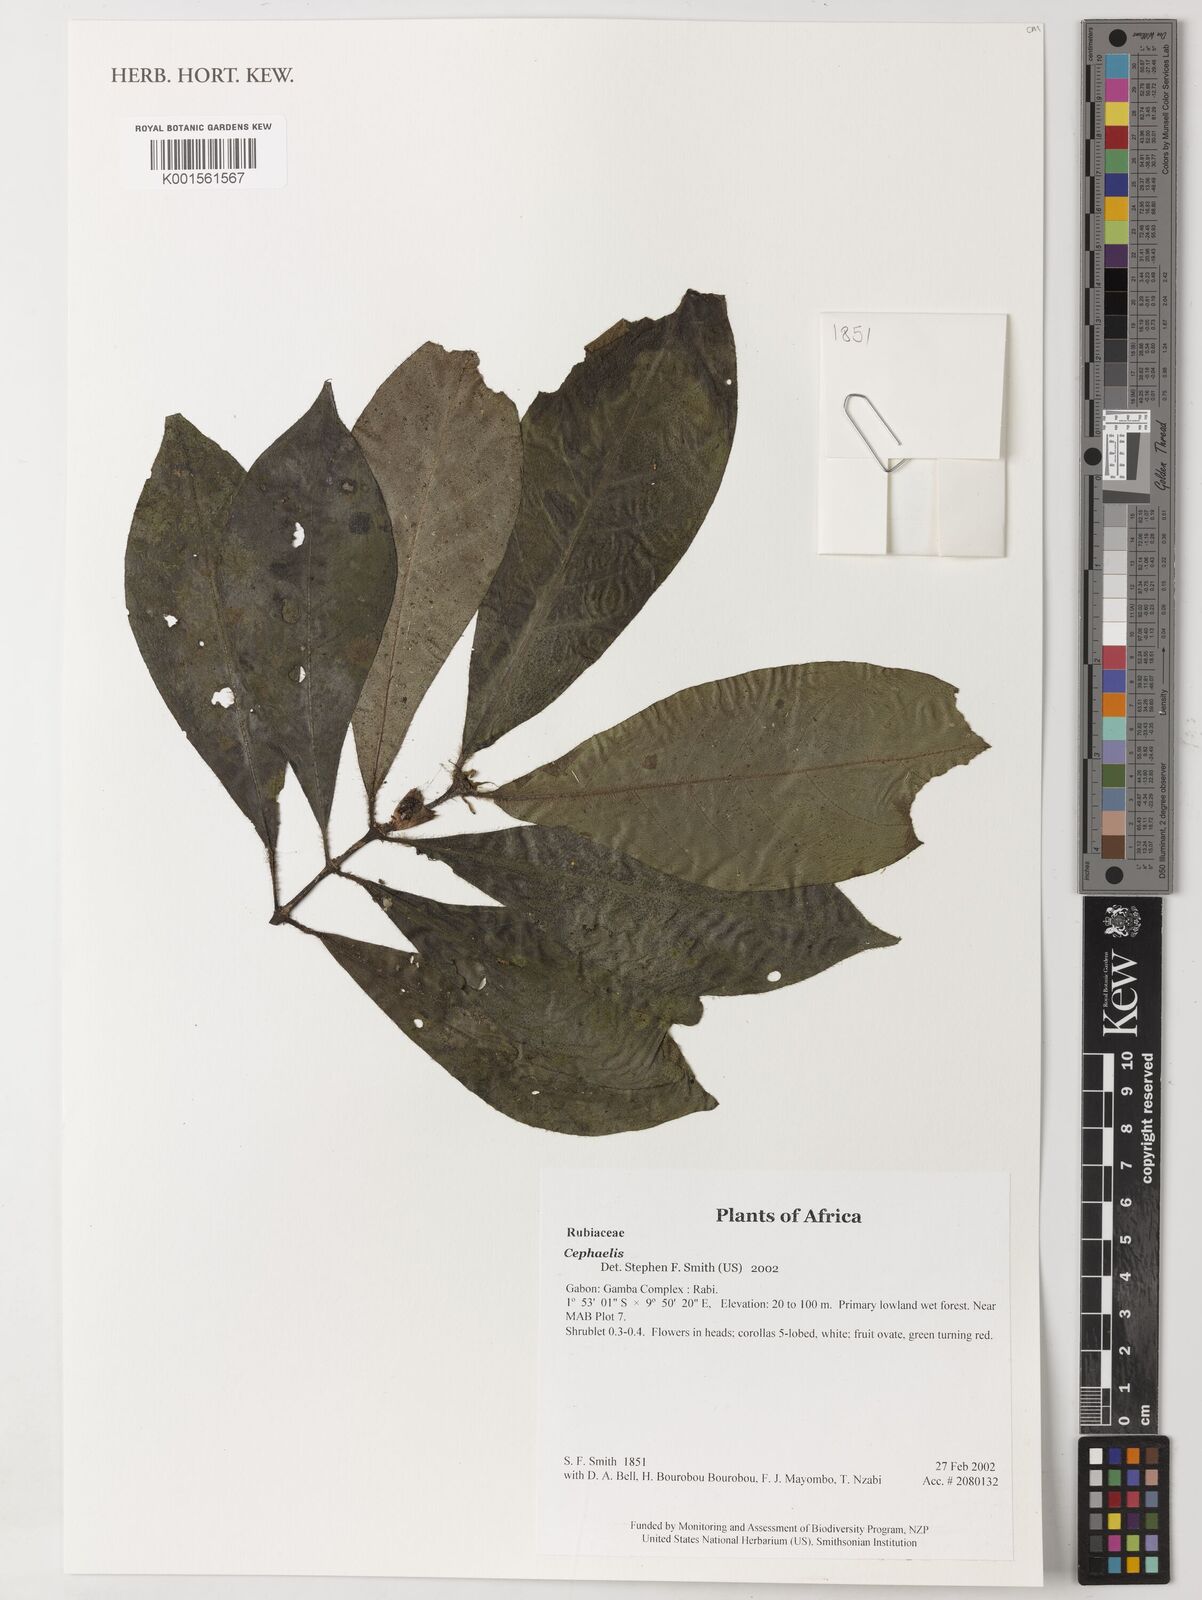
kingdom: Plantae
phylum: Tracheophyta
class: Magnoliopsida
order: Gentianales
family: Rubiaceae
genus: Psychotria
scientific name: Psychotria
